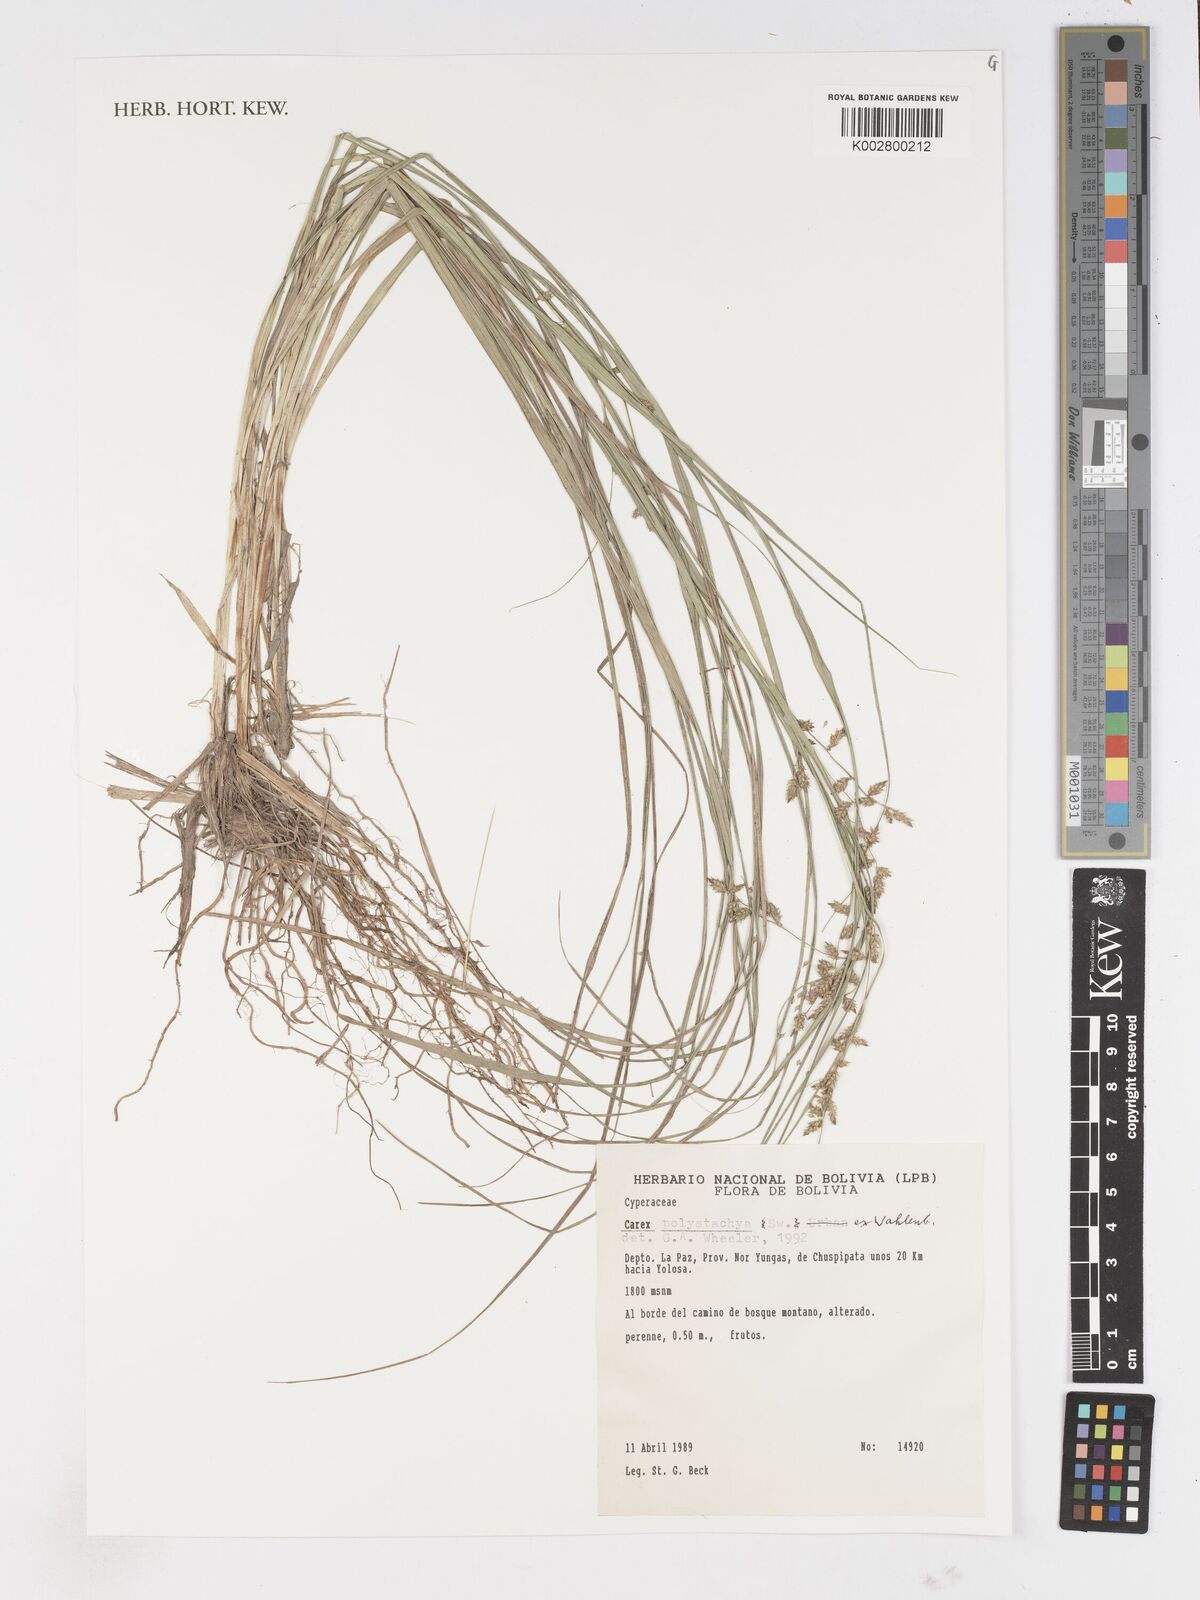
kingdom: Plantae
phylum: Tracheophyta
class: Liliopsida
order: Poales
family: Cyperaceae
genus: Carex
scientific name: Carex polysticha
